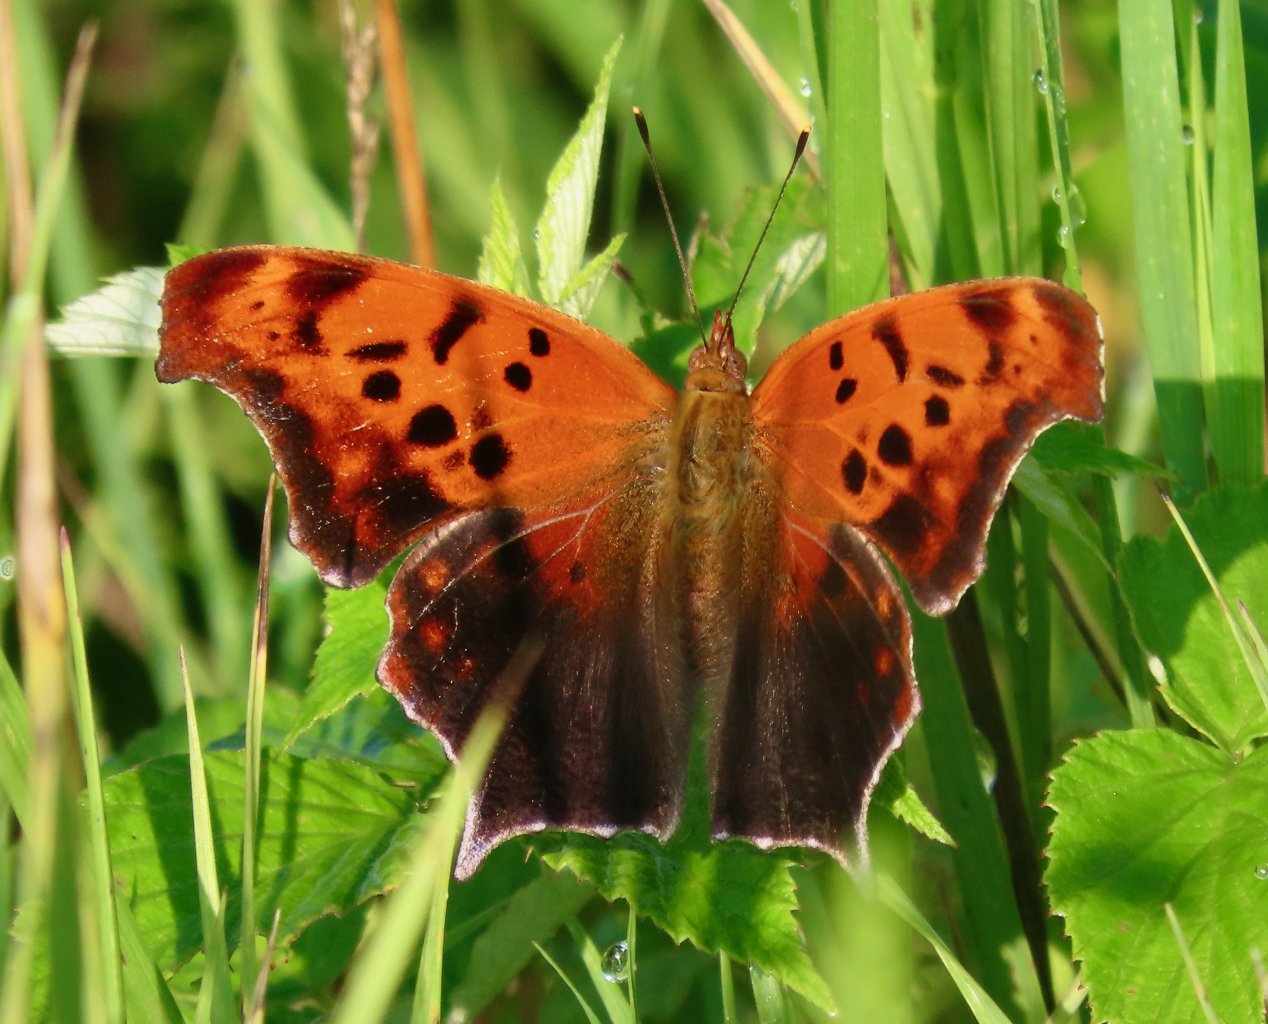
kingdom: Animalia
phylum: Arthropoda
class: Insecta
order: Lepidoptera
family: Nymphalidae
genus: Polygonia
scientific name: Polygonia interrogationis
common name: Question Mark
